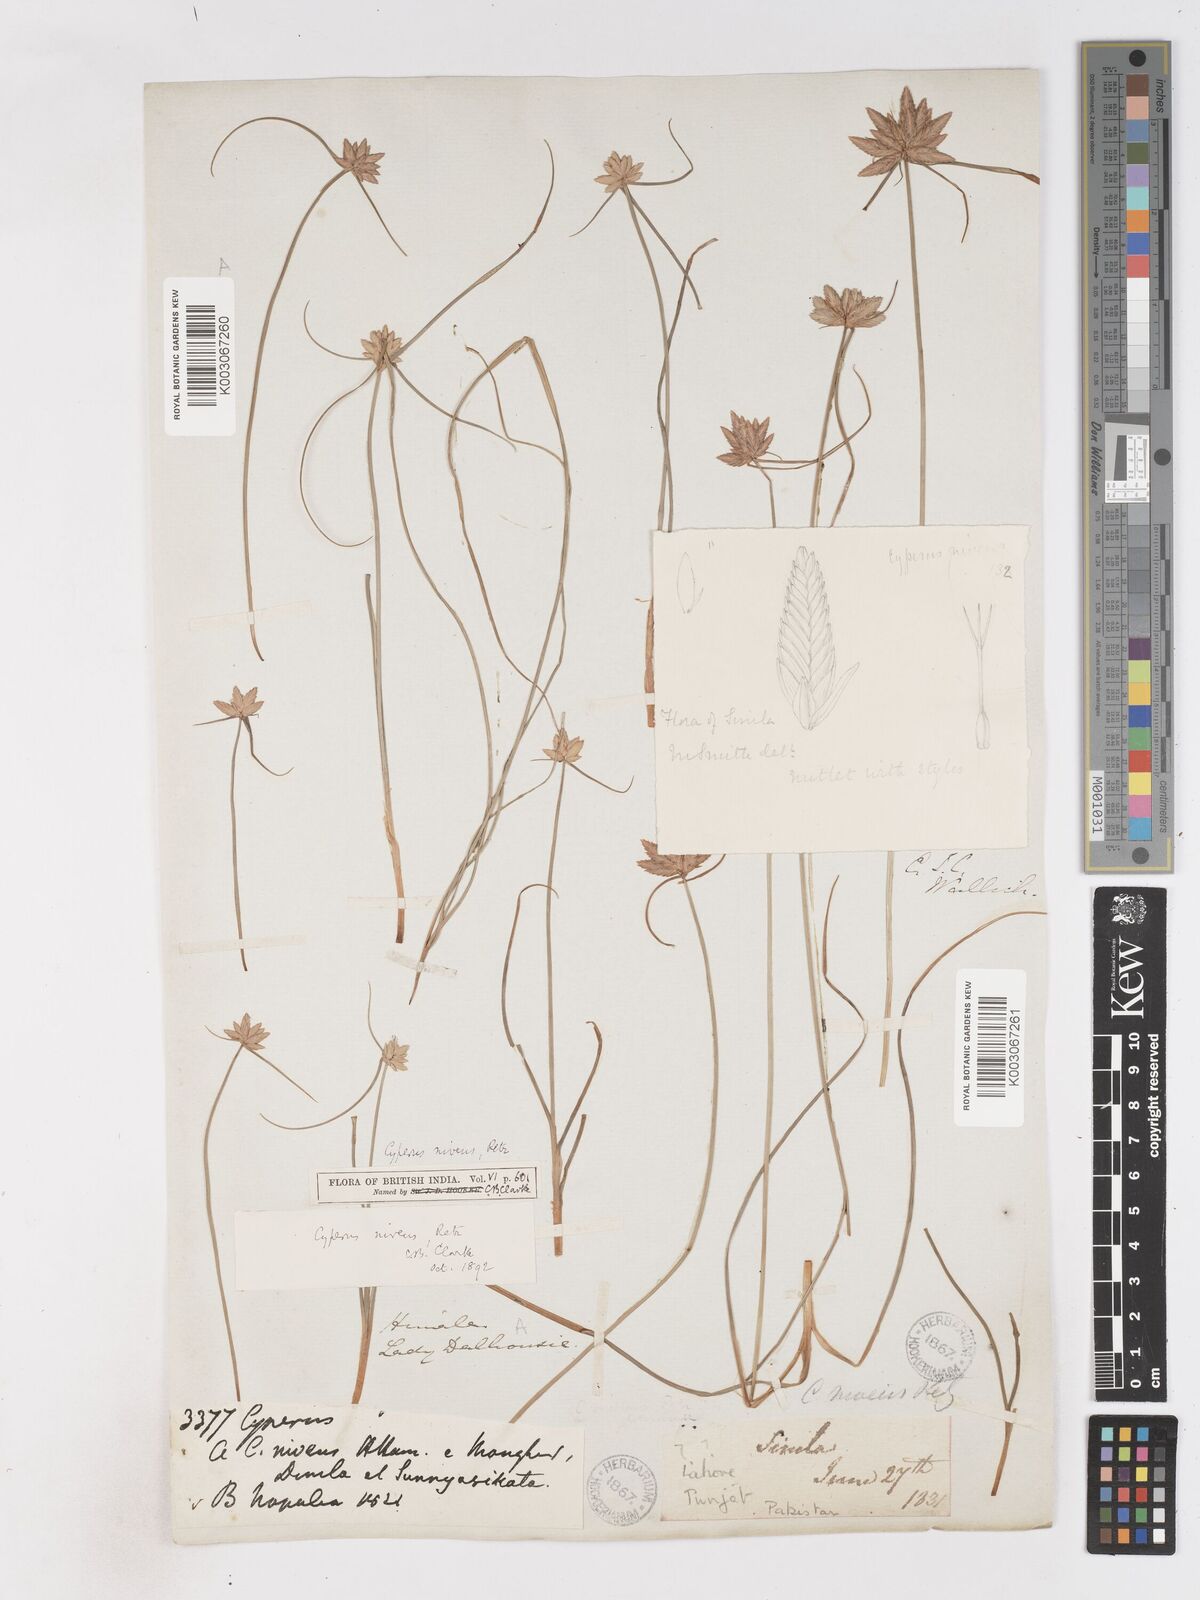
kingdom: Plantae
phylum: Tracheophyta
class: Liliopsida
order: Poales
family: Cyperaceae
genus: Cyperus
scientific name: Cyperus niveus
